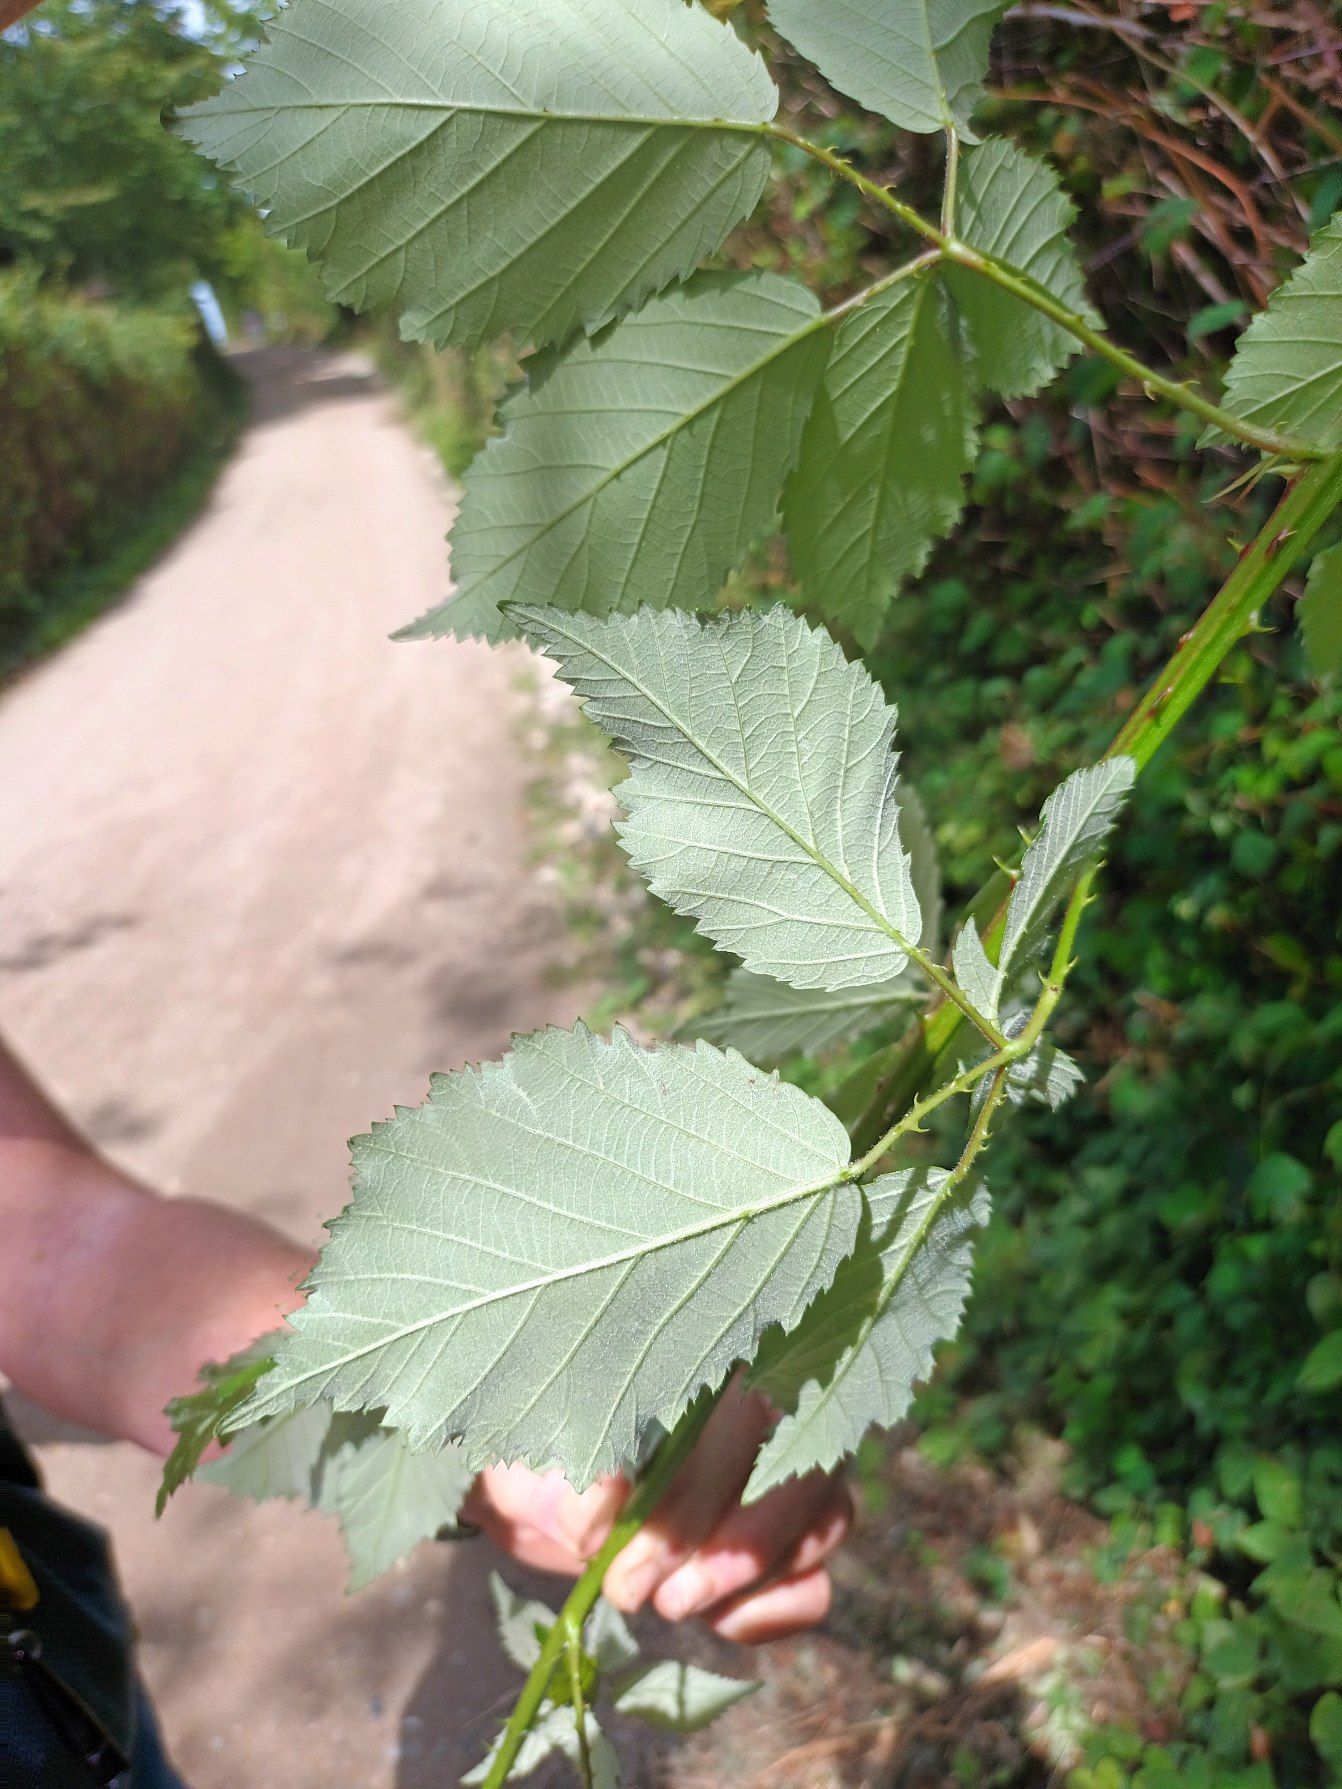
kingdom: Plantae
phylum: Tracheophyta
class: Magnoliopsida
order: Rosales
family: Rosaceae
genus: Rubus
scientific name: Rubus grabowskii
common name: Duskblomstret brombær
